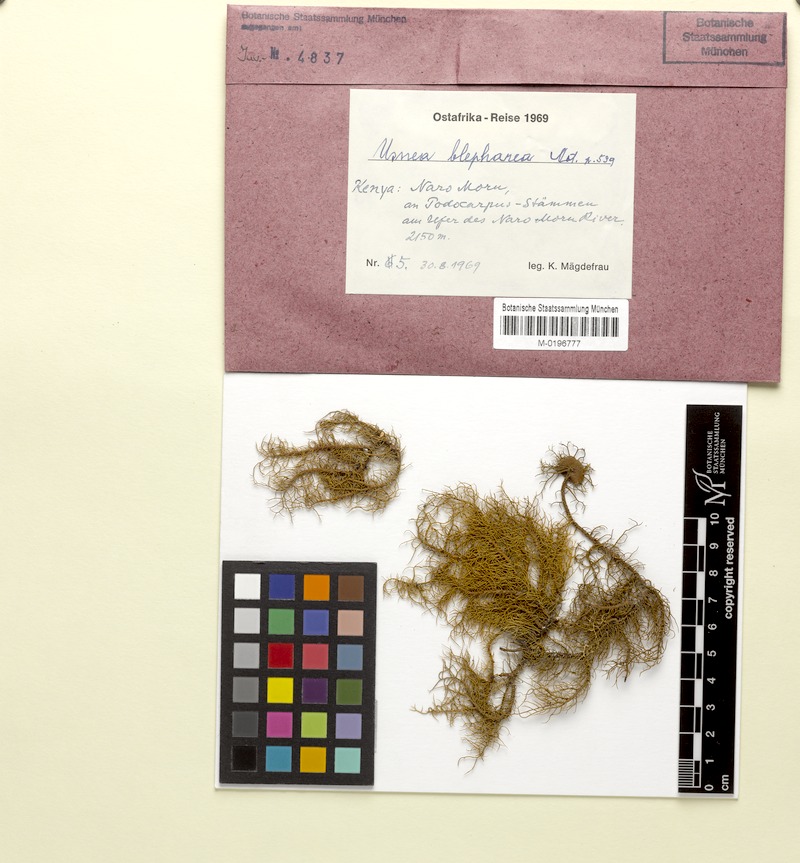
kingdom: Fungi
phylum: Ascomycota
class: Lecanoromycetes
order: Lecanorales
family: Parmeliaceae
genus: Usnea
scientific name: Usnea blepharea
